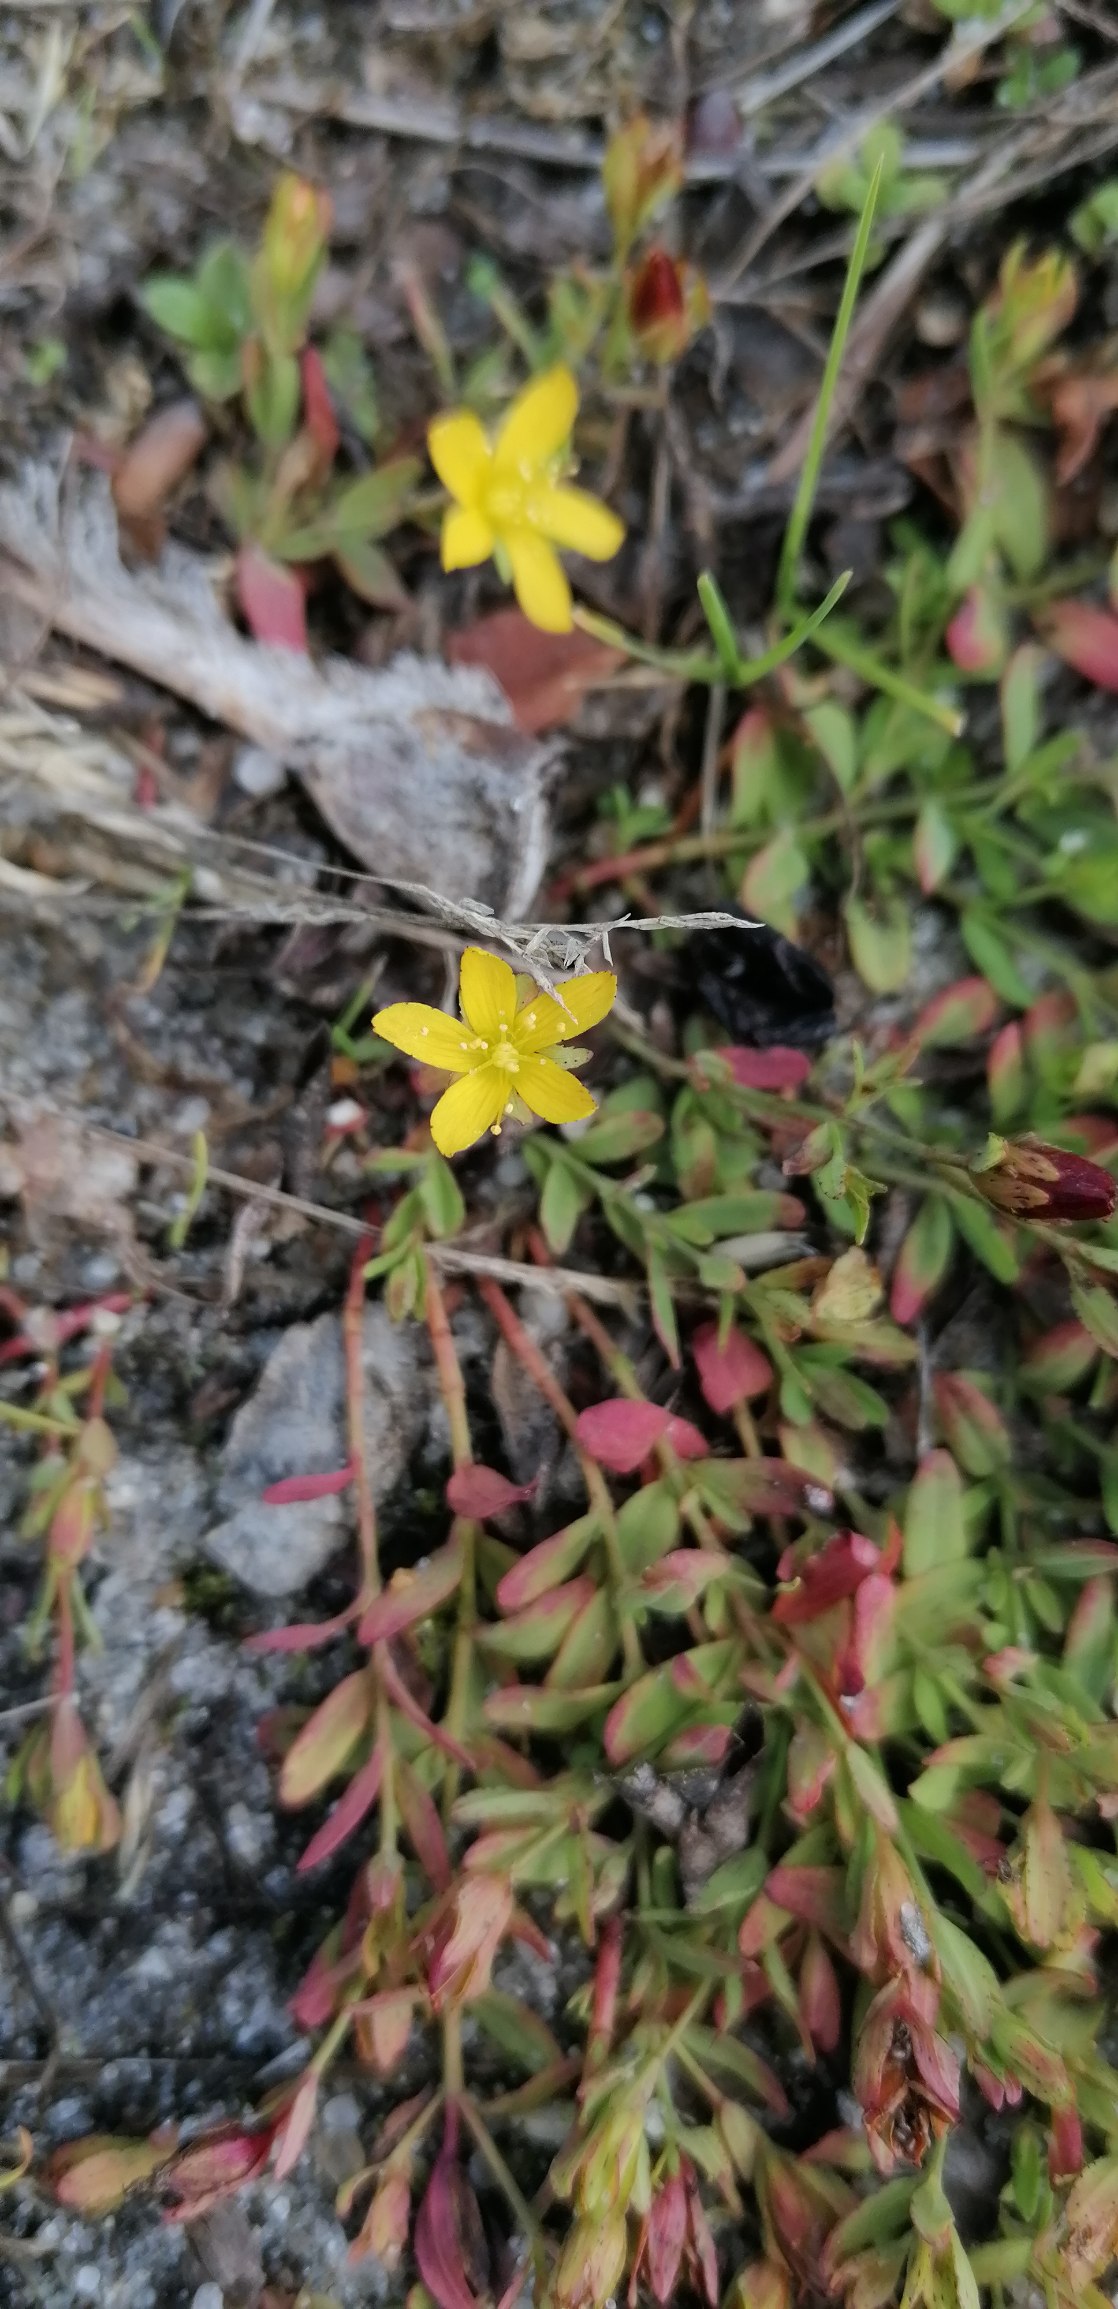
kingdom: Plantae
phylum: Tracheophyta
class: Magnoliopsida
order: Malpighiales
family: Hypericaceae
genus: Hypericum
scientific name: Hypericum humifusum
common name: Dværg-perikon
